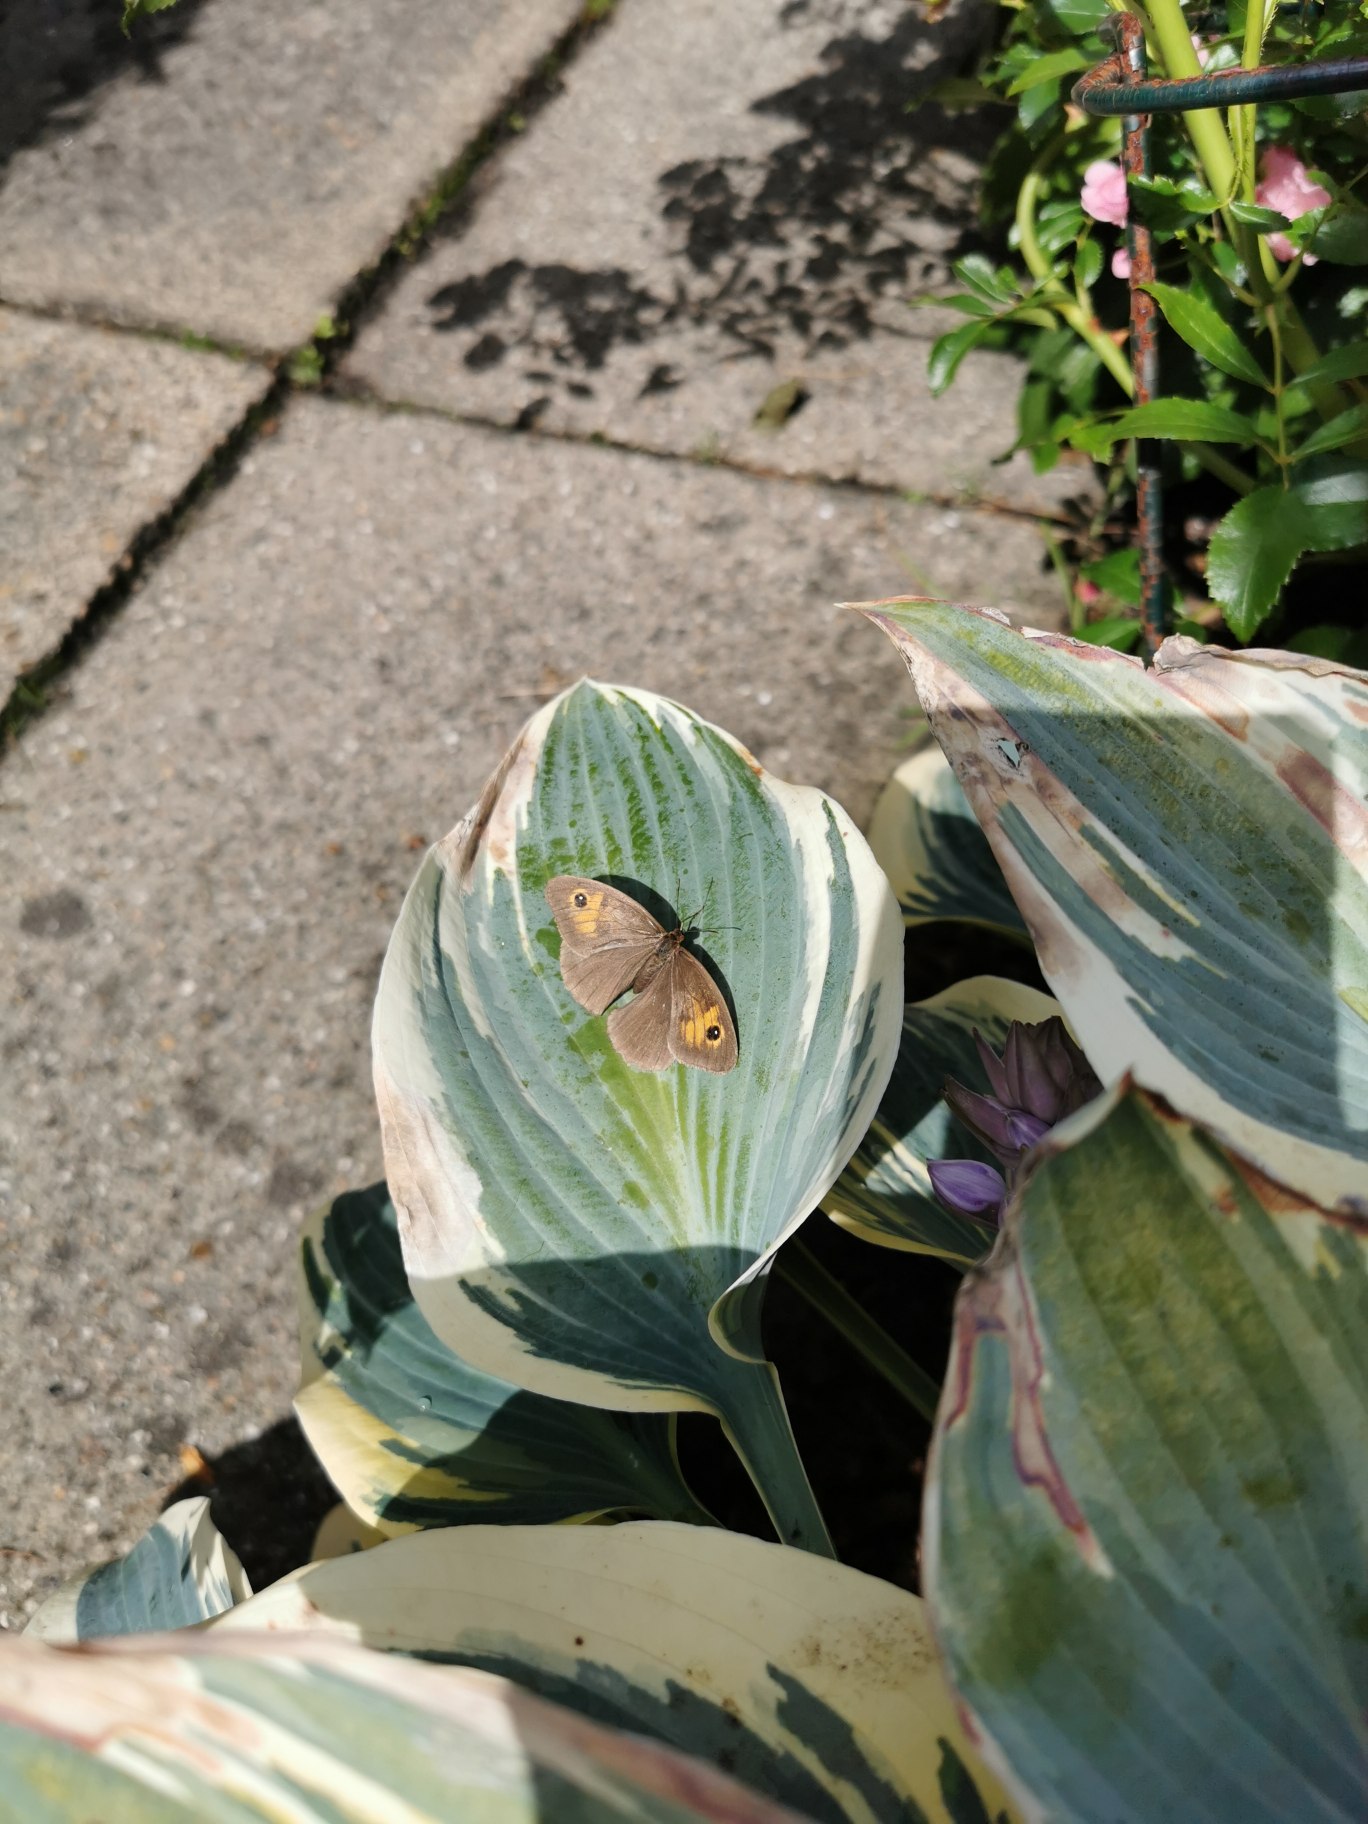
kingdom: Animalia
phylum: Arthropoda
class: Insecta
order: Lepidoptera
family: Nymphalidae
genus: Maniola
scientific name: Maniola jurtina
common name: Græsrandøje
